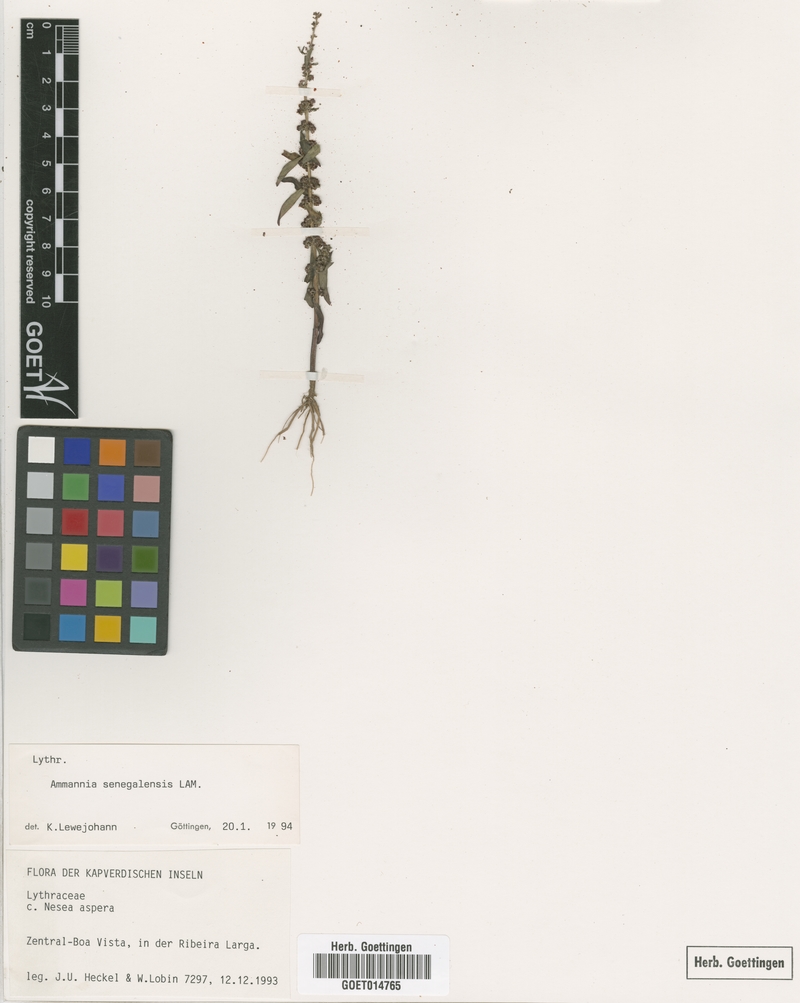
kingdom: Plantae
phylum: Tracheophyta
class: Magnoliopsida
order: Myrtales
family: Lythraceae
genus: Ammannia
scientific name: Ammannia senegalensis
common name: Red ammannia
